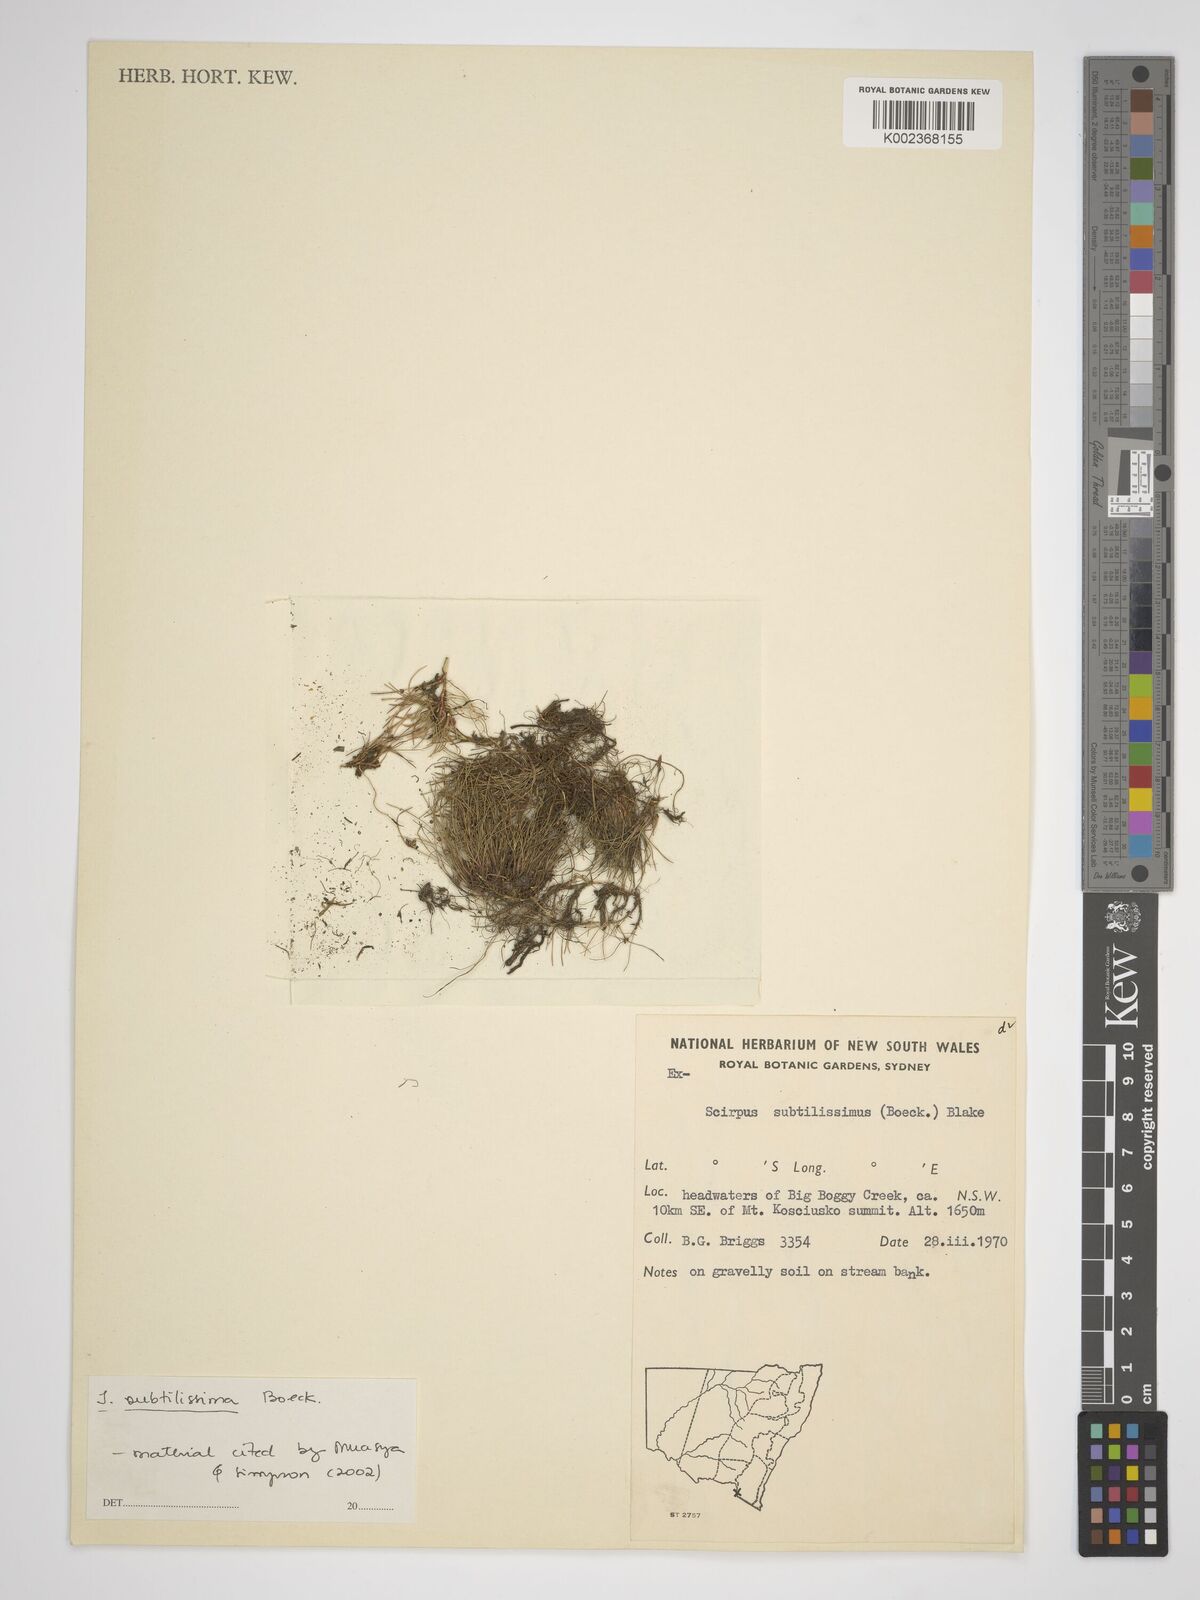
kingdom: Plantae
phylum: Tracheophyta
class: Liliopsida
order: Poales
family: Cyperaceae
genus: Isolepis
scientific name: Isolepis subtilissima
